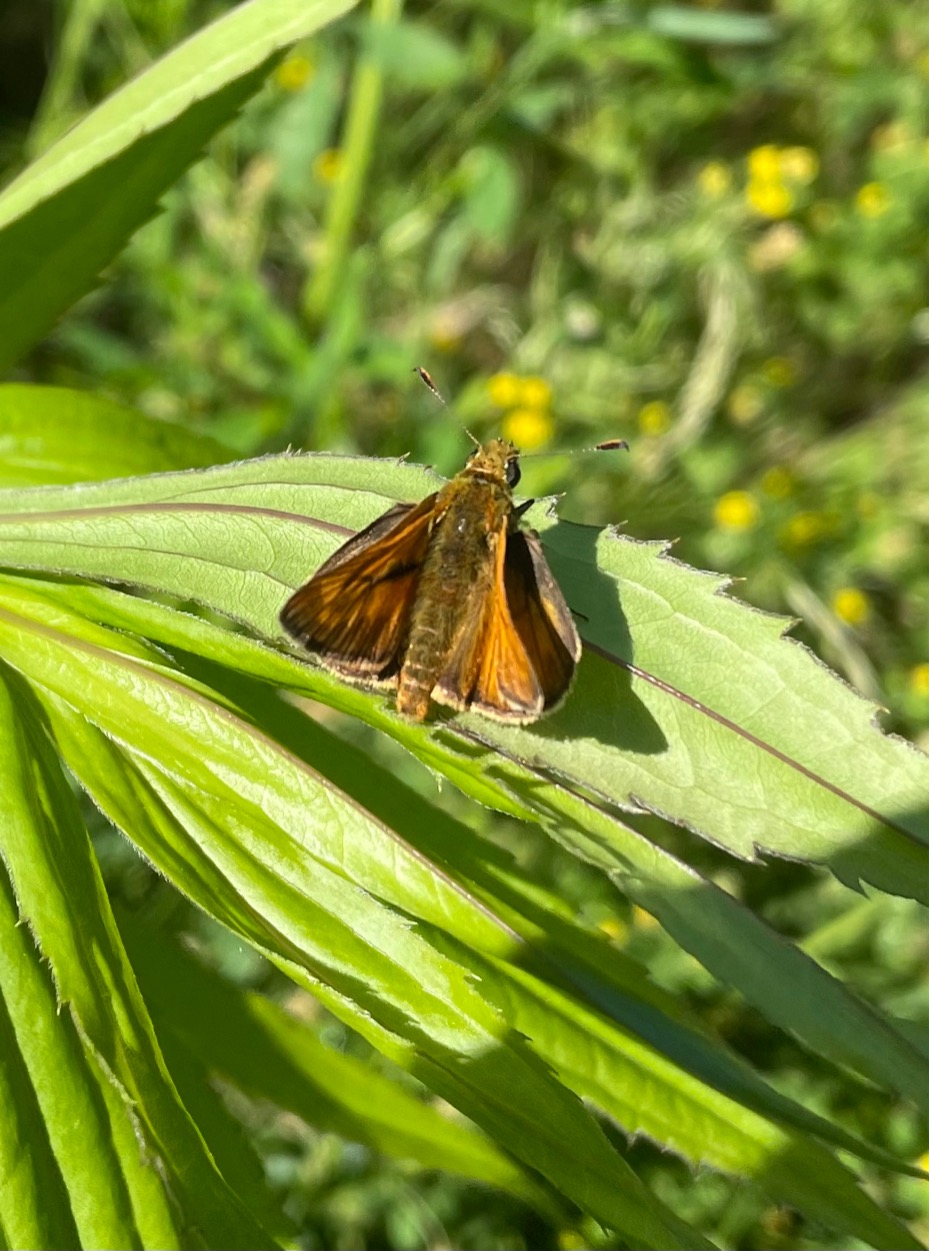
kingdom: Animalia
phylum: Arthropoda
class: Insecta
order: Lepidoptera
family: Hesperiidae
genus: Ochlodes
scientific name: Ochlodes venata
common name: Stor bredpande
